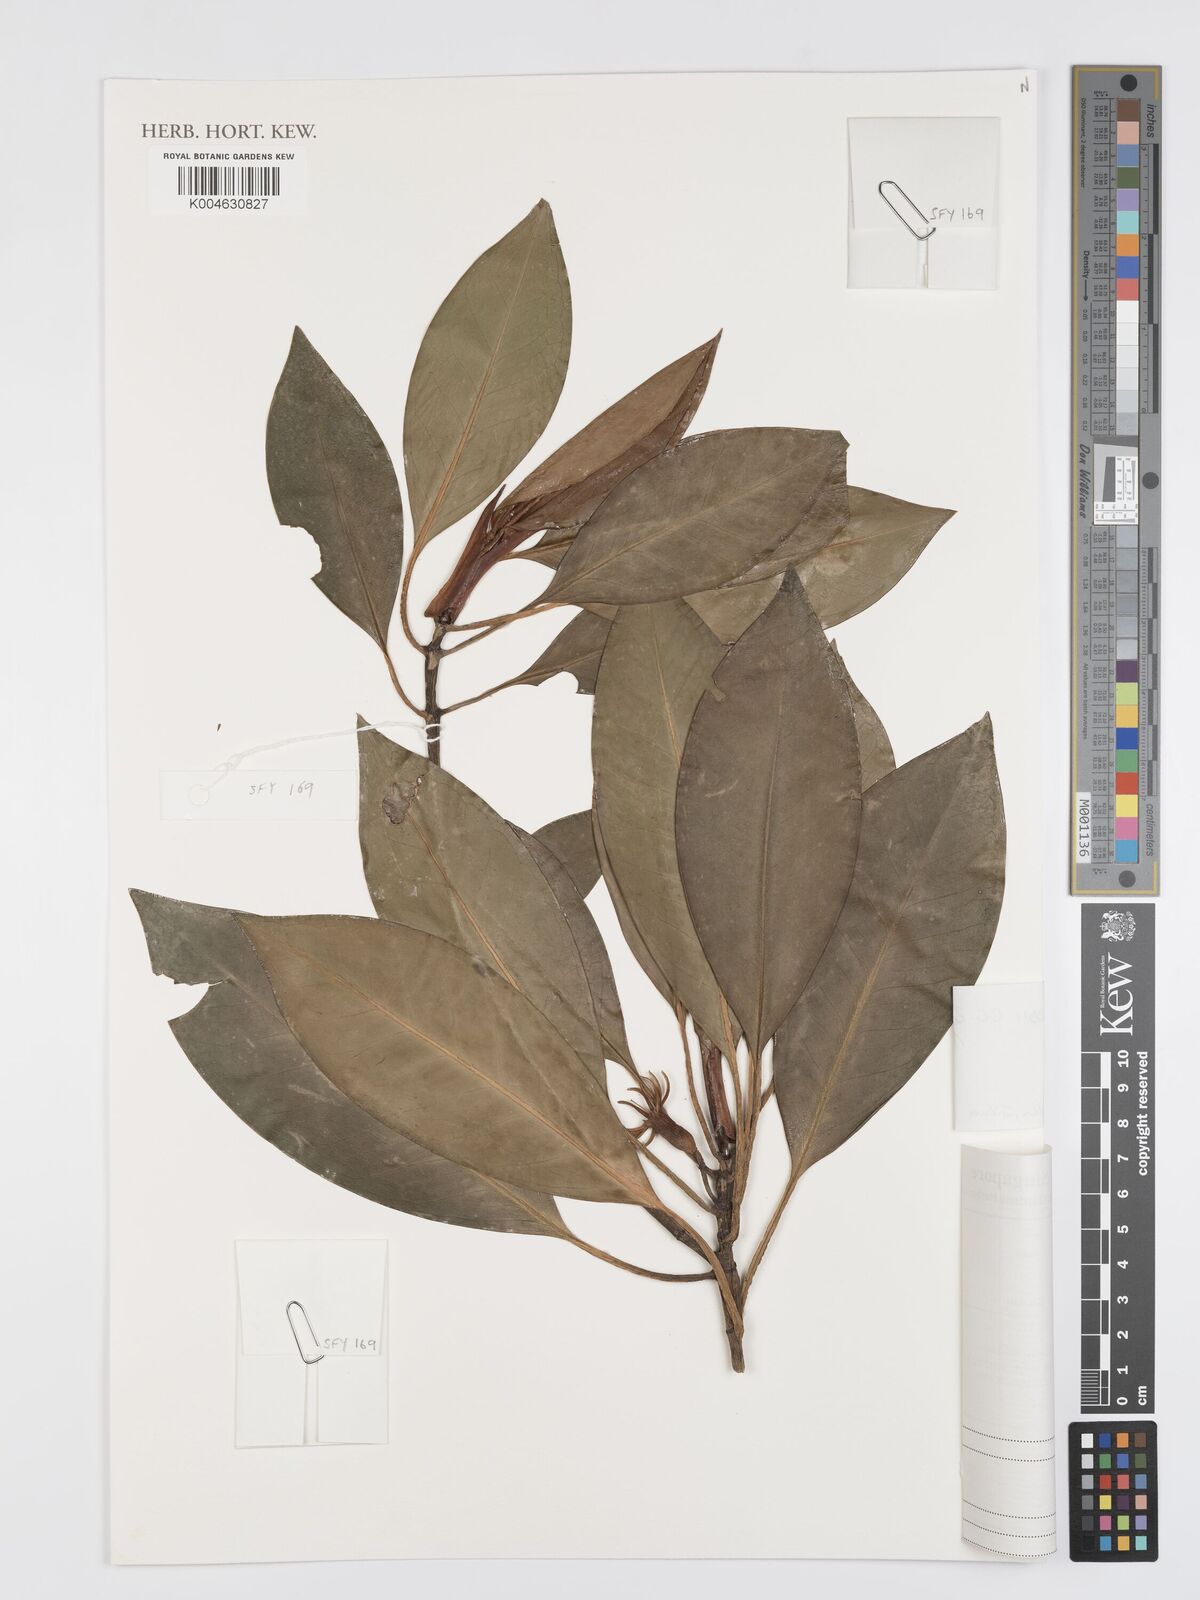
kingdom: Plantae
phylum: Tracheophyta
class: Magnoliopsida
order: Malpighiales
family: Rhizophoraceae
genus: Bruguiera
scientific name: Bruguiera hainesii
